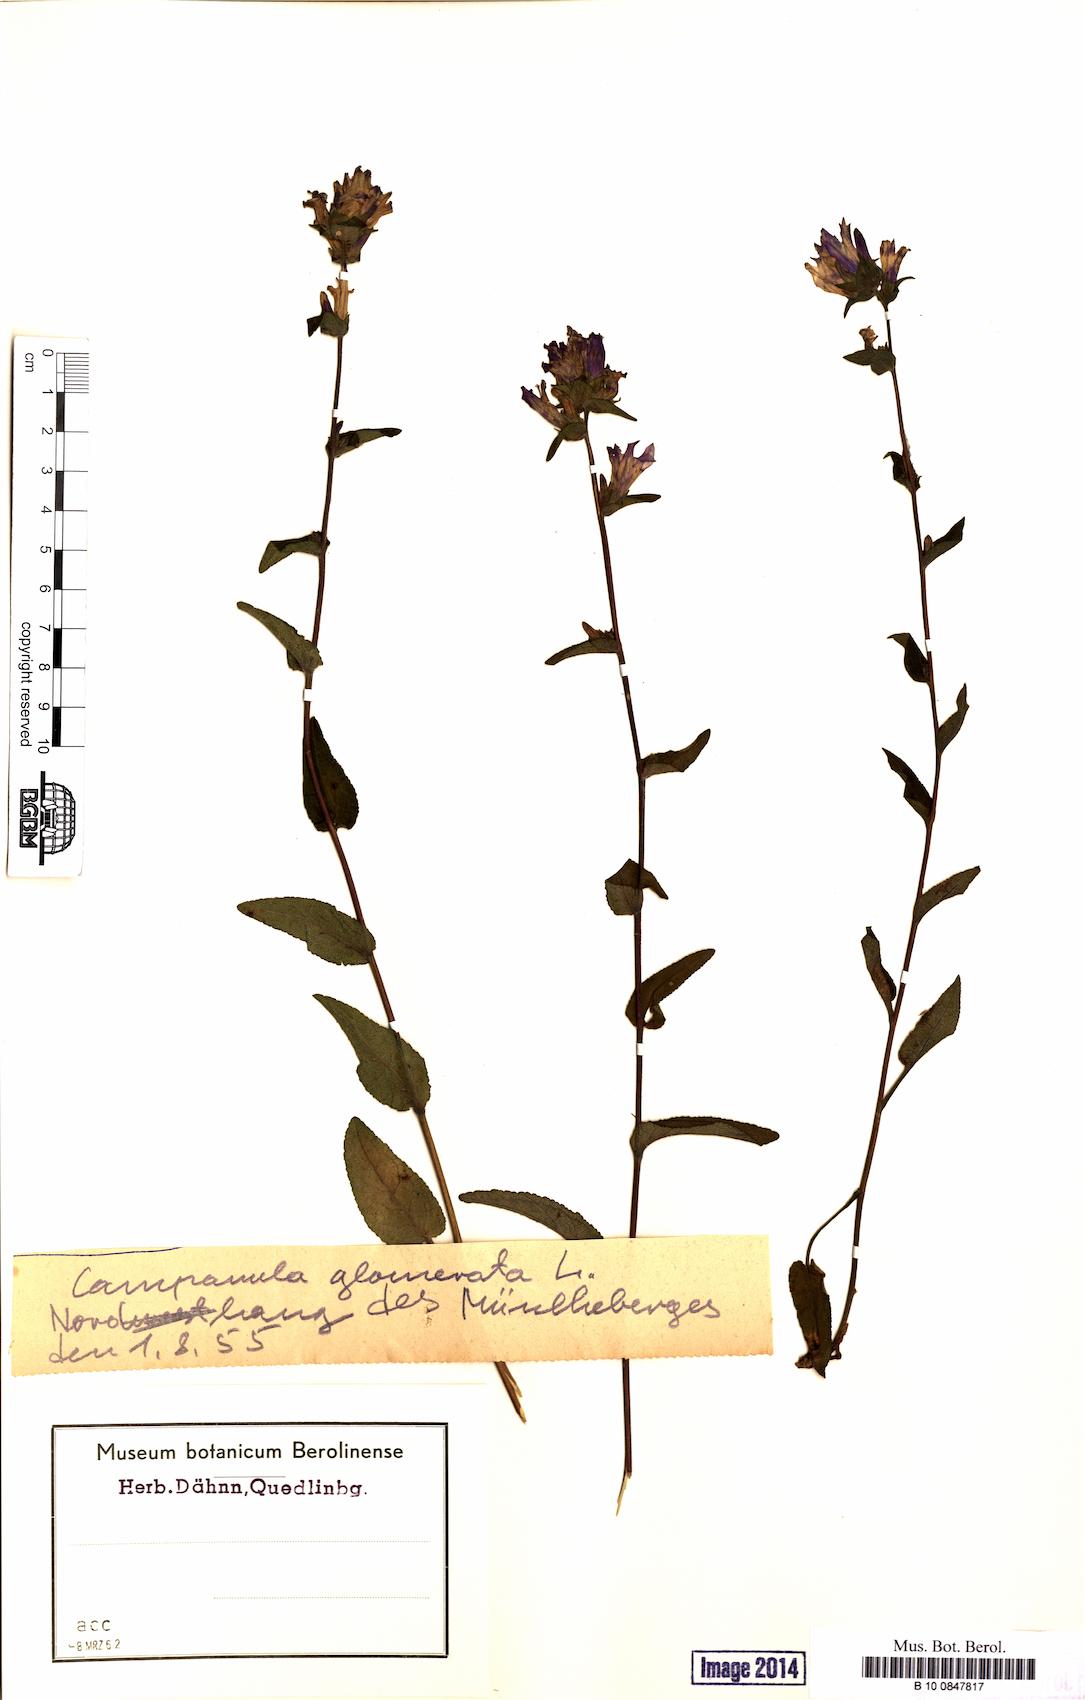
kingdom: Plantae
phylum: Tracheophyta
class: Magnoliopsida
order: Asterales
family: Campanulaceae
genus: Campanula
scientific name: Campanula glomerata
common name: Clustered bellflower
